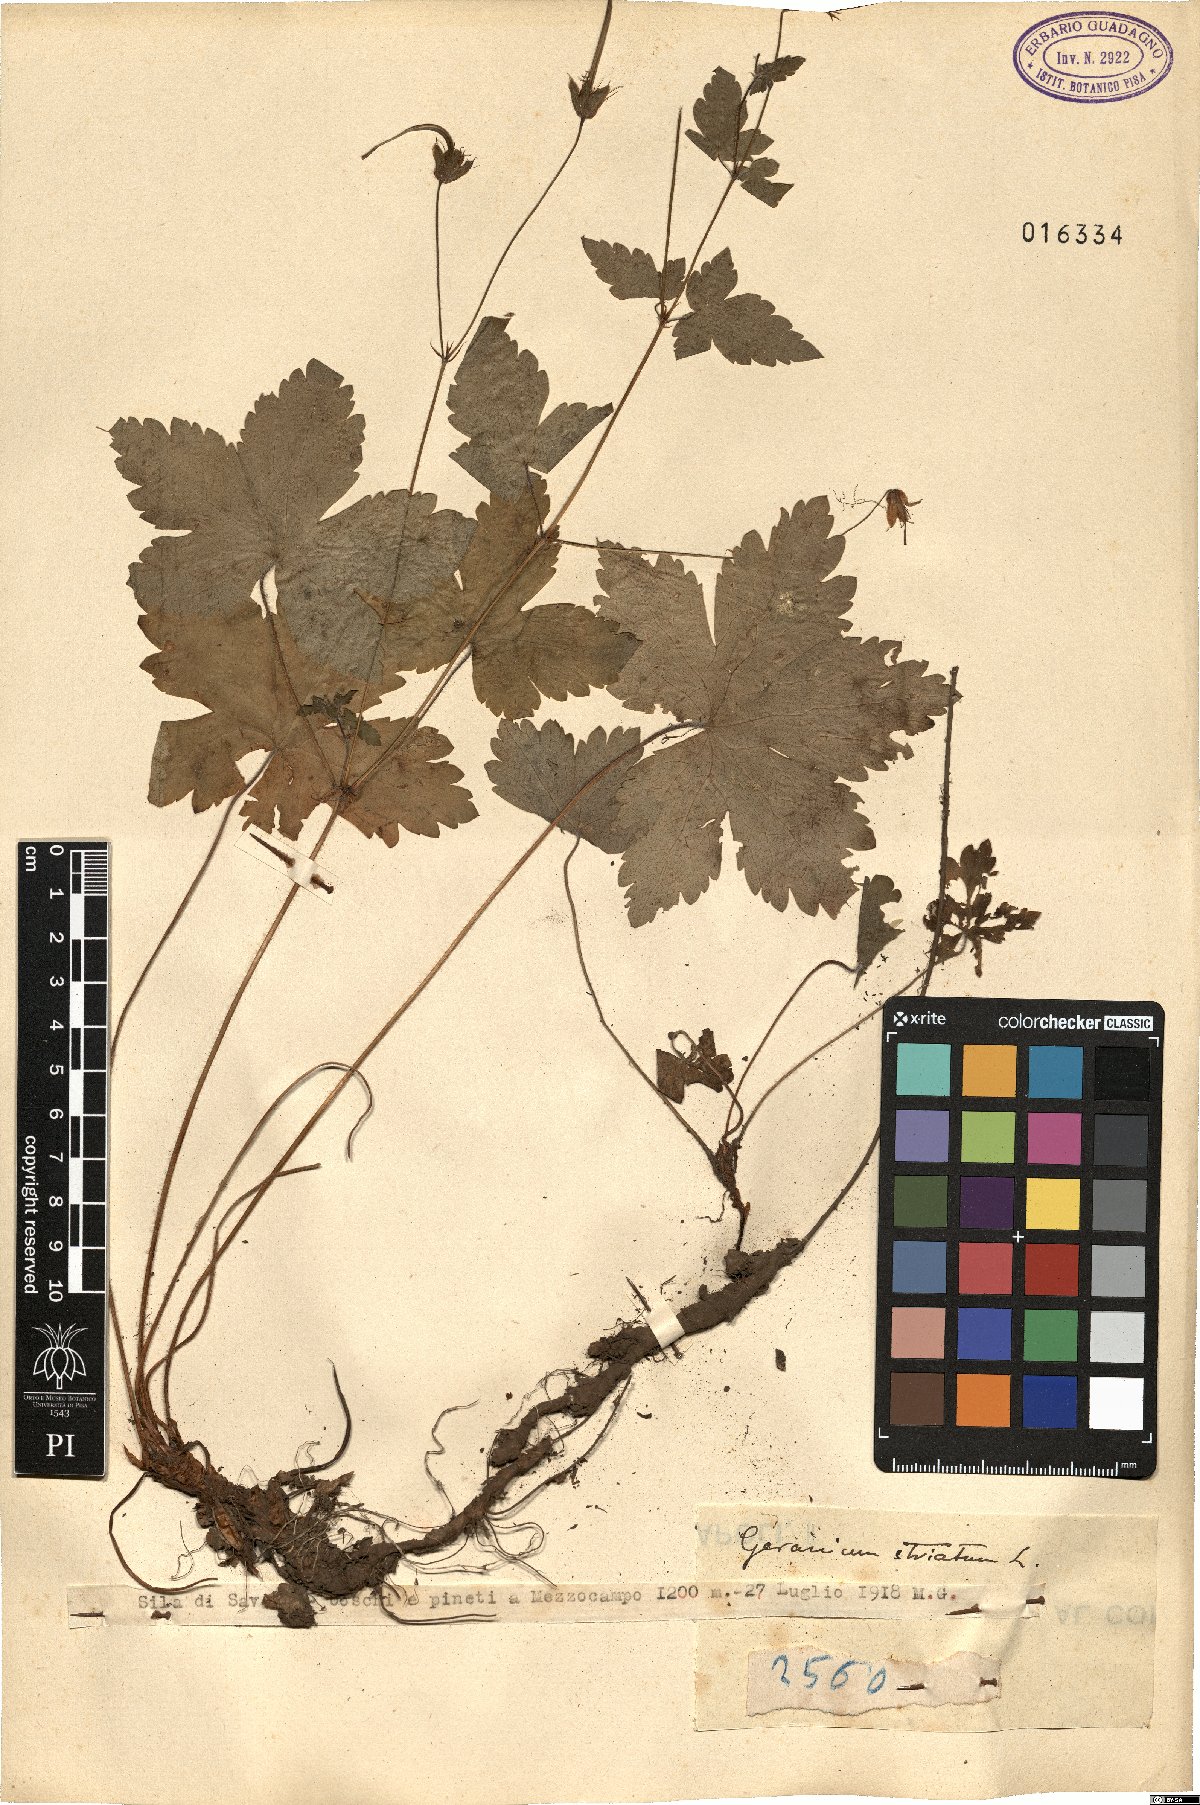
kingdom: Plantae
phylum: Tracheophyta
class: Magnoliopsida
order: Geraniales
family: Geraniaceae
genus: Geranium
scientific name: Geranium versicolor
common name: Pencilled crane's-bill
